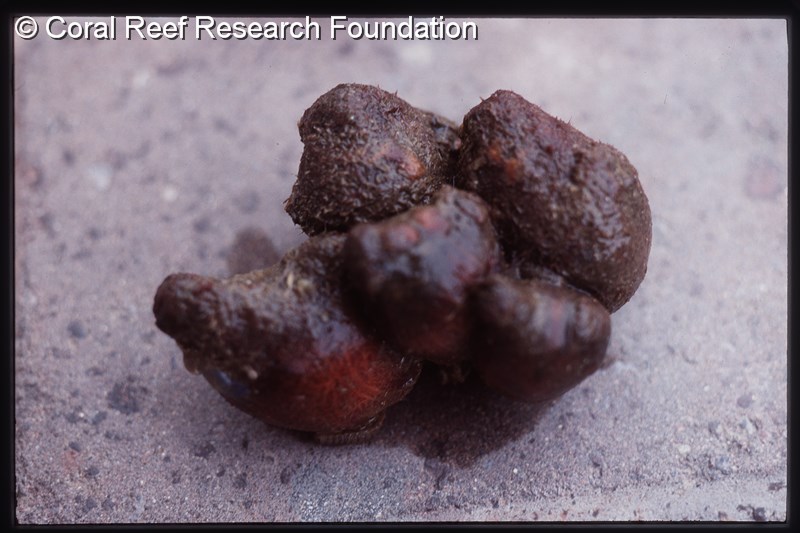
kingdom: Animalia
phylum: Chordata
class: Ascidiacea
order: Stolidobranchia
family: Pyuridae
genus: Pyura
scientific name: Pyura
